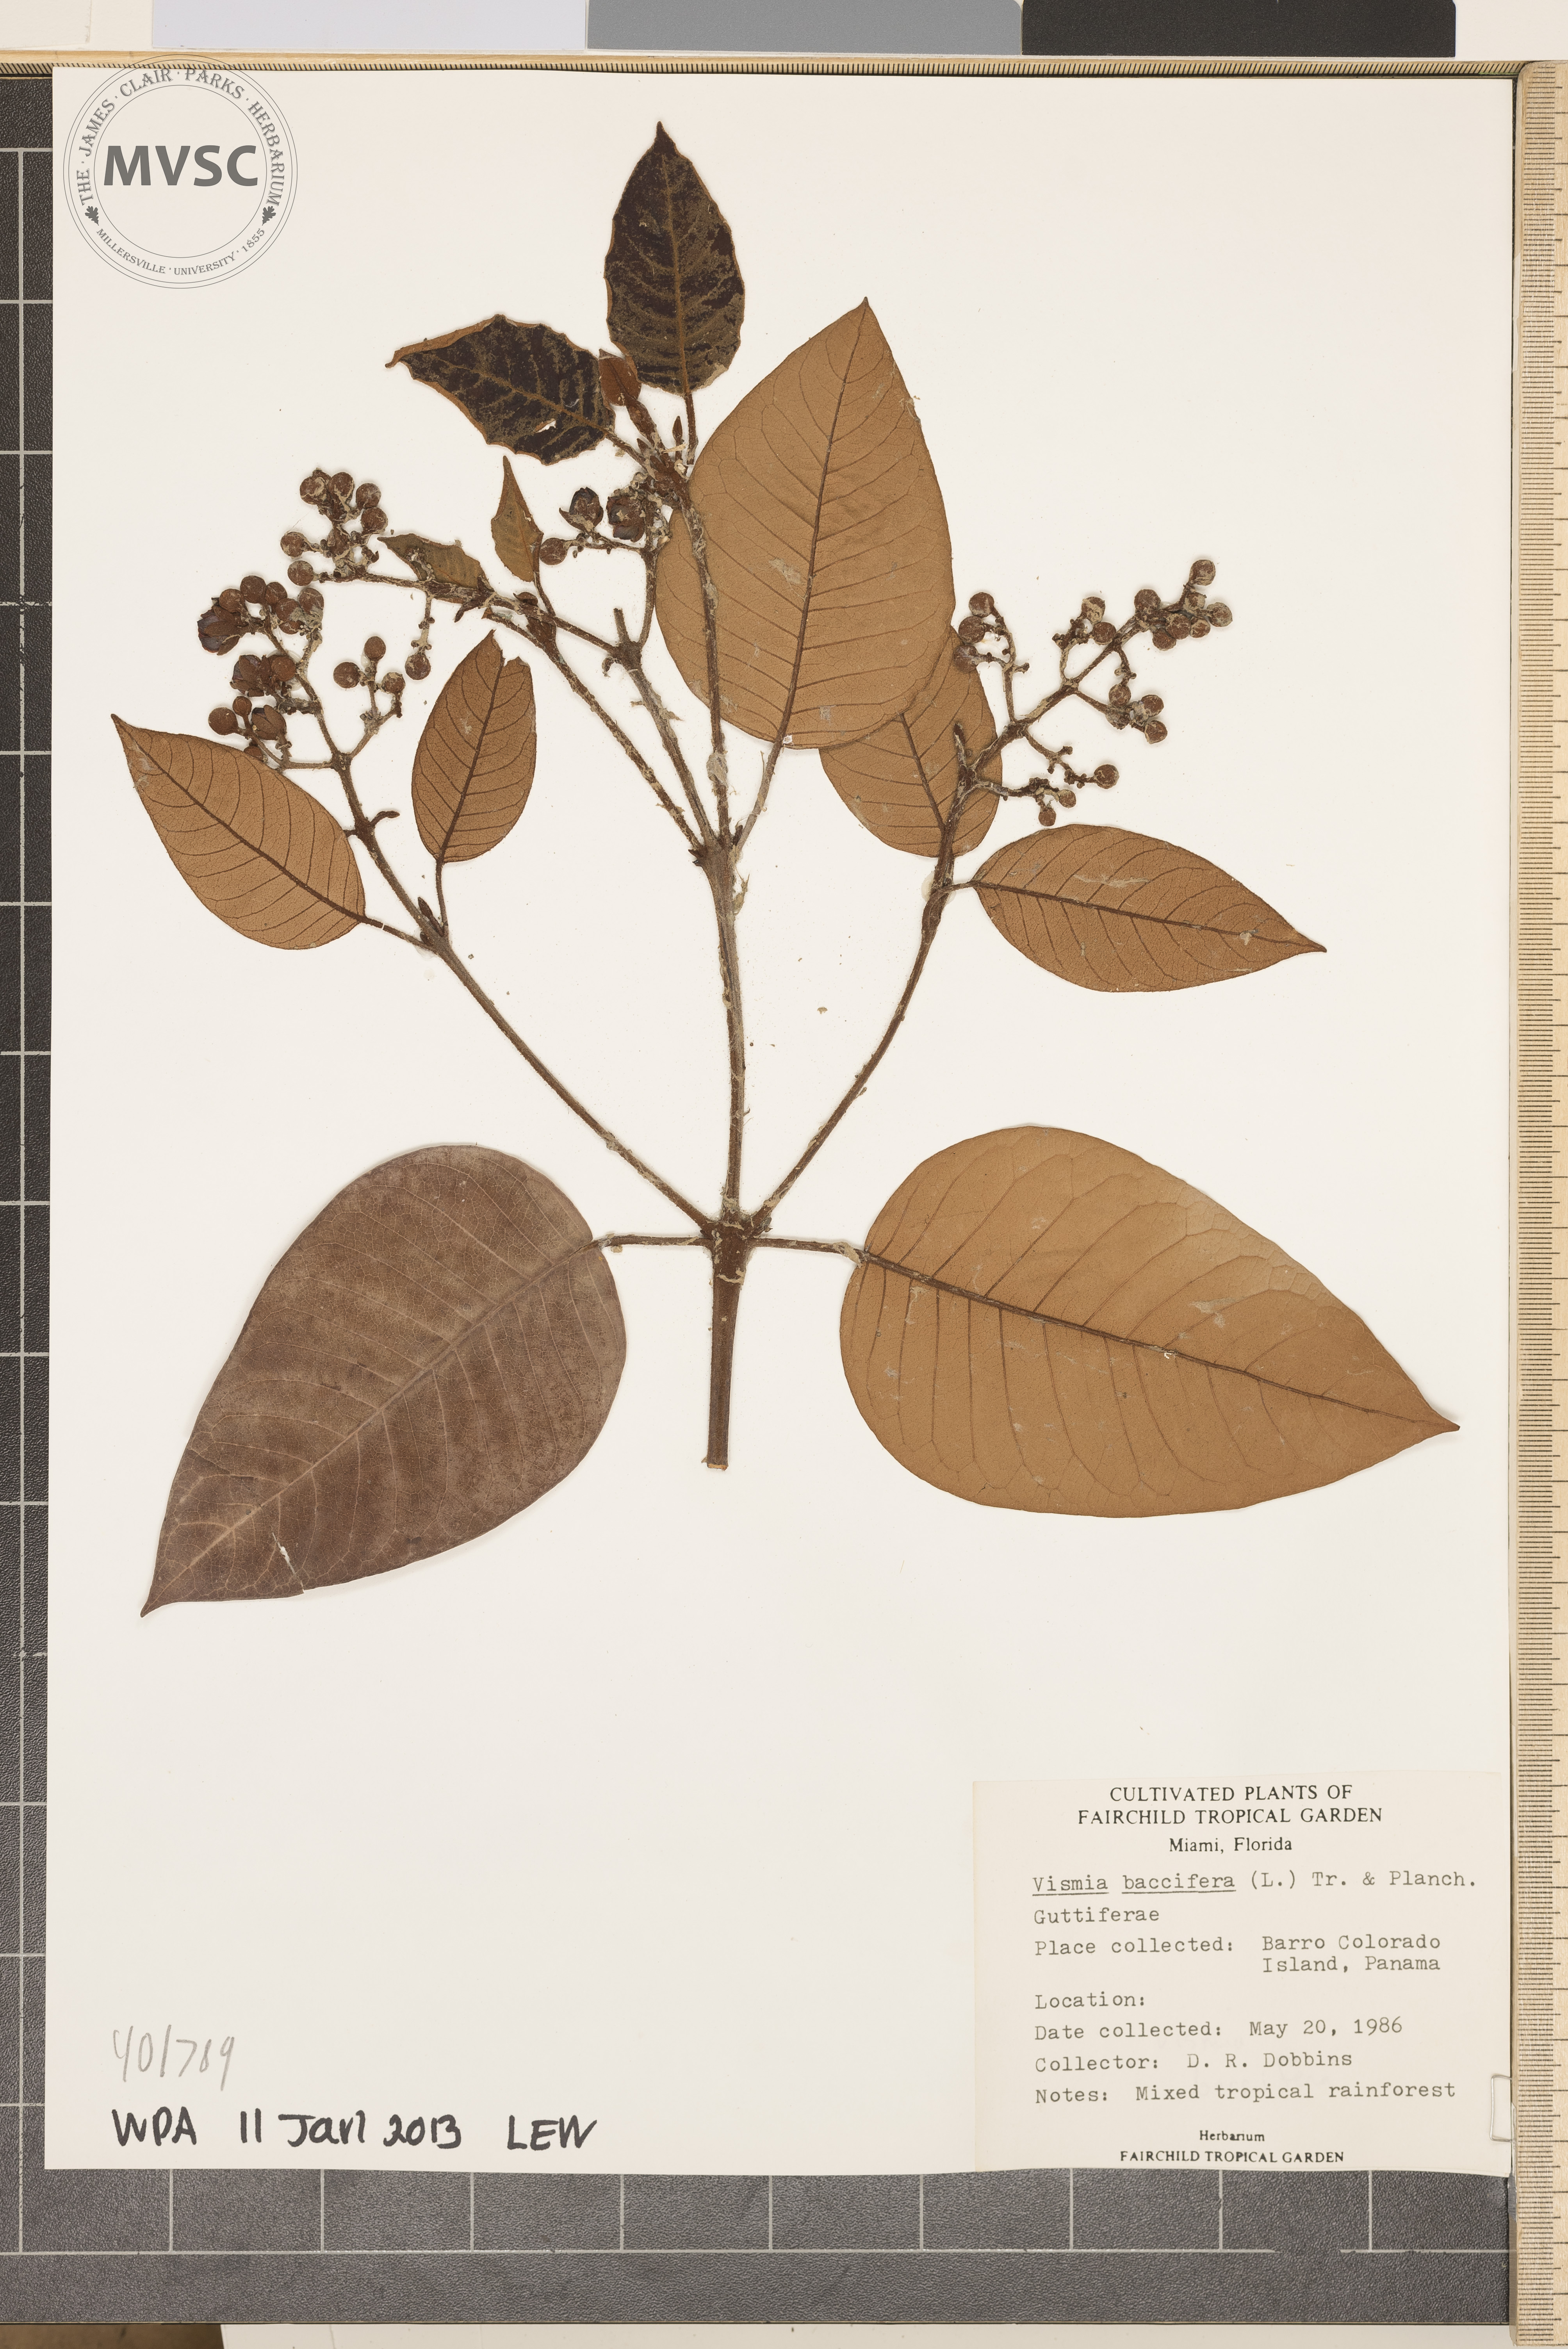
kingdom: Plantae
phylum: Tracheophyta
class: Magnoliopsida
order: Malpighiales
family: Hypericaceae
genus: Vismia
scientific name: Vismia baccifera
